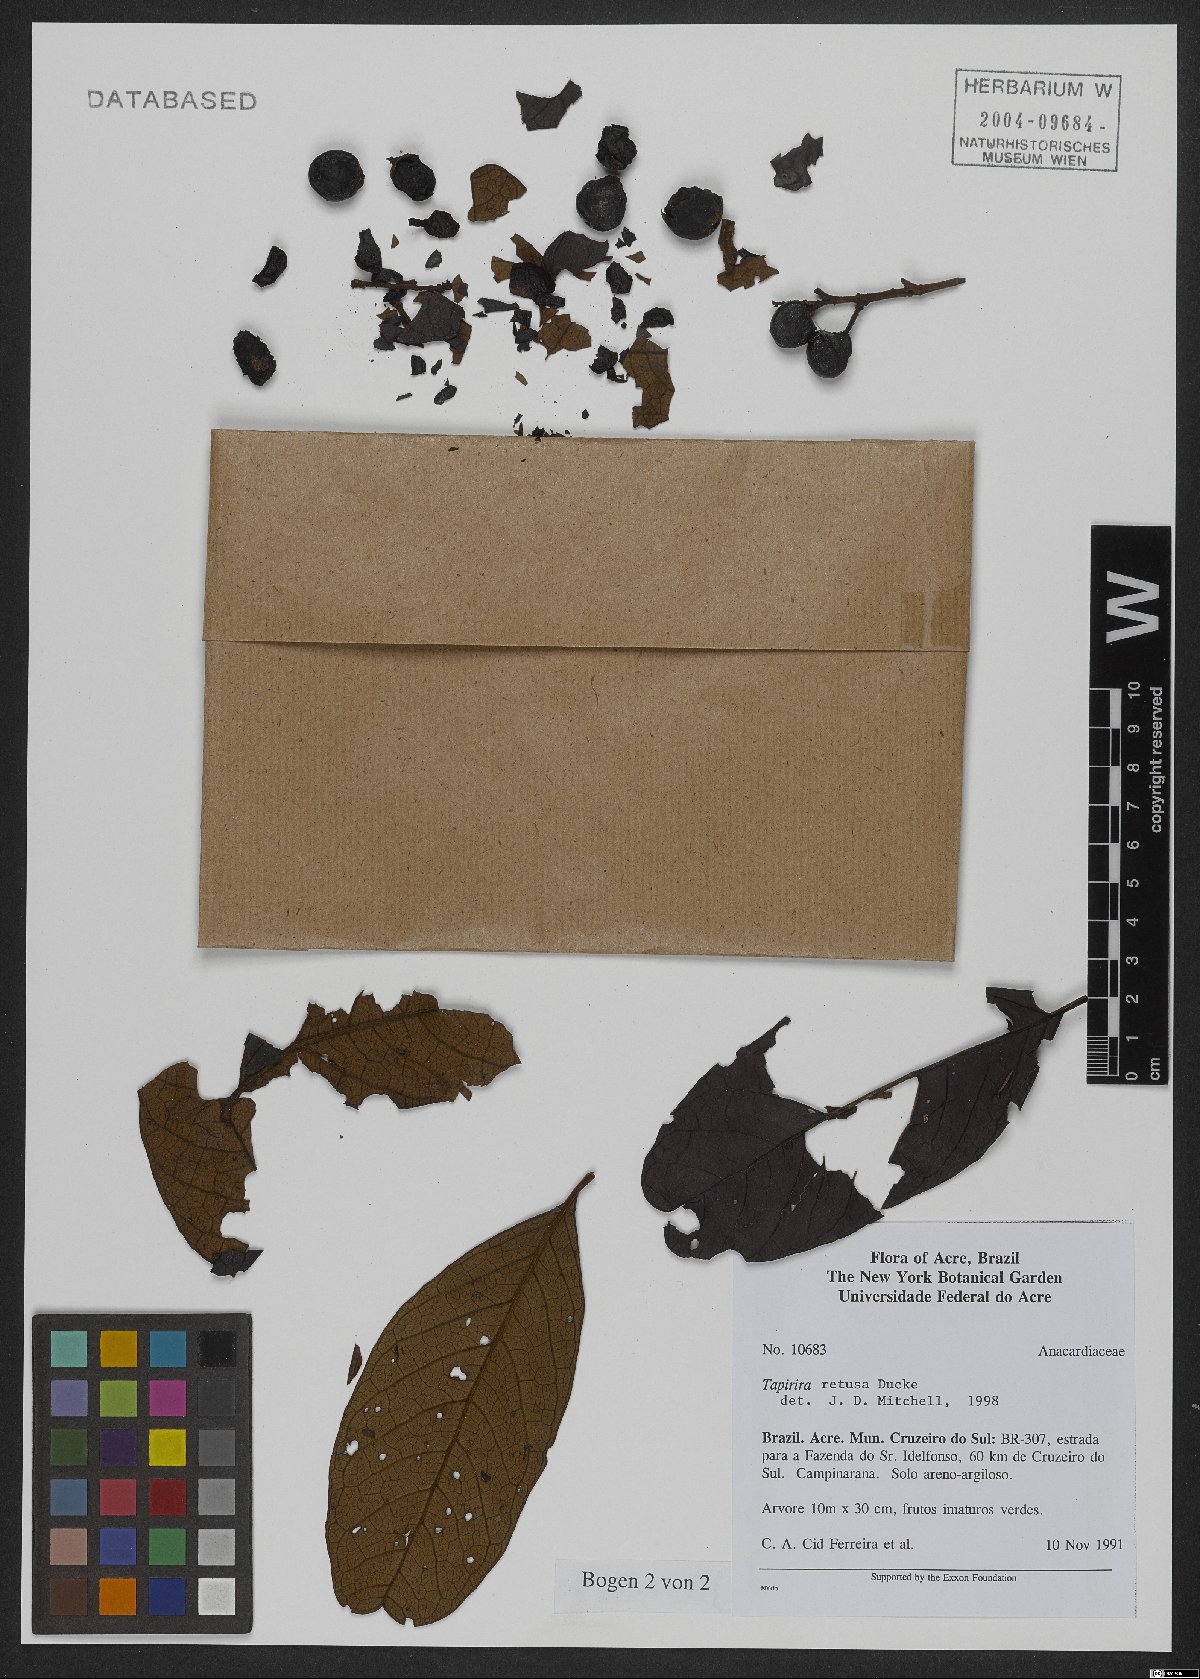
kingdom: Plantae
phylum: Tracheophyta
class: Magnoliopsida
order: Sapindales
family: Anacardiaceae
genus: Tapirira
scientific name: Tapirira retusa
